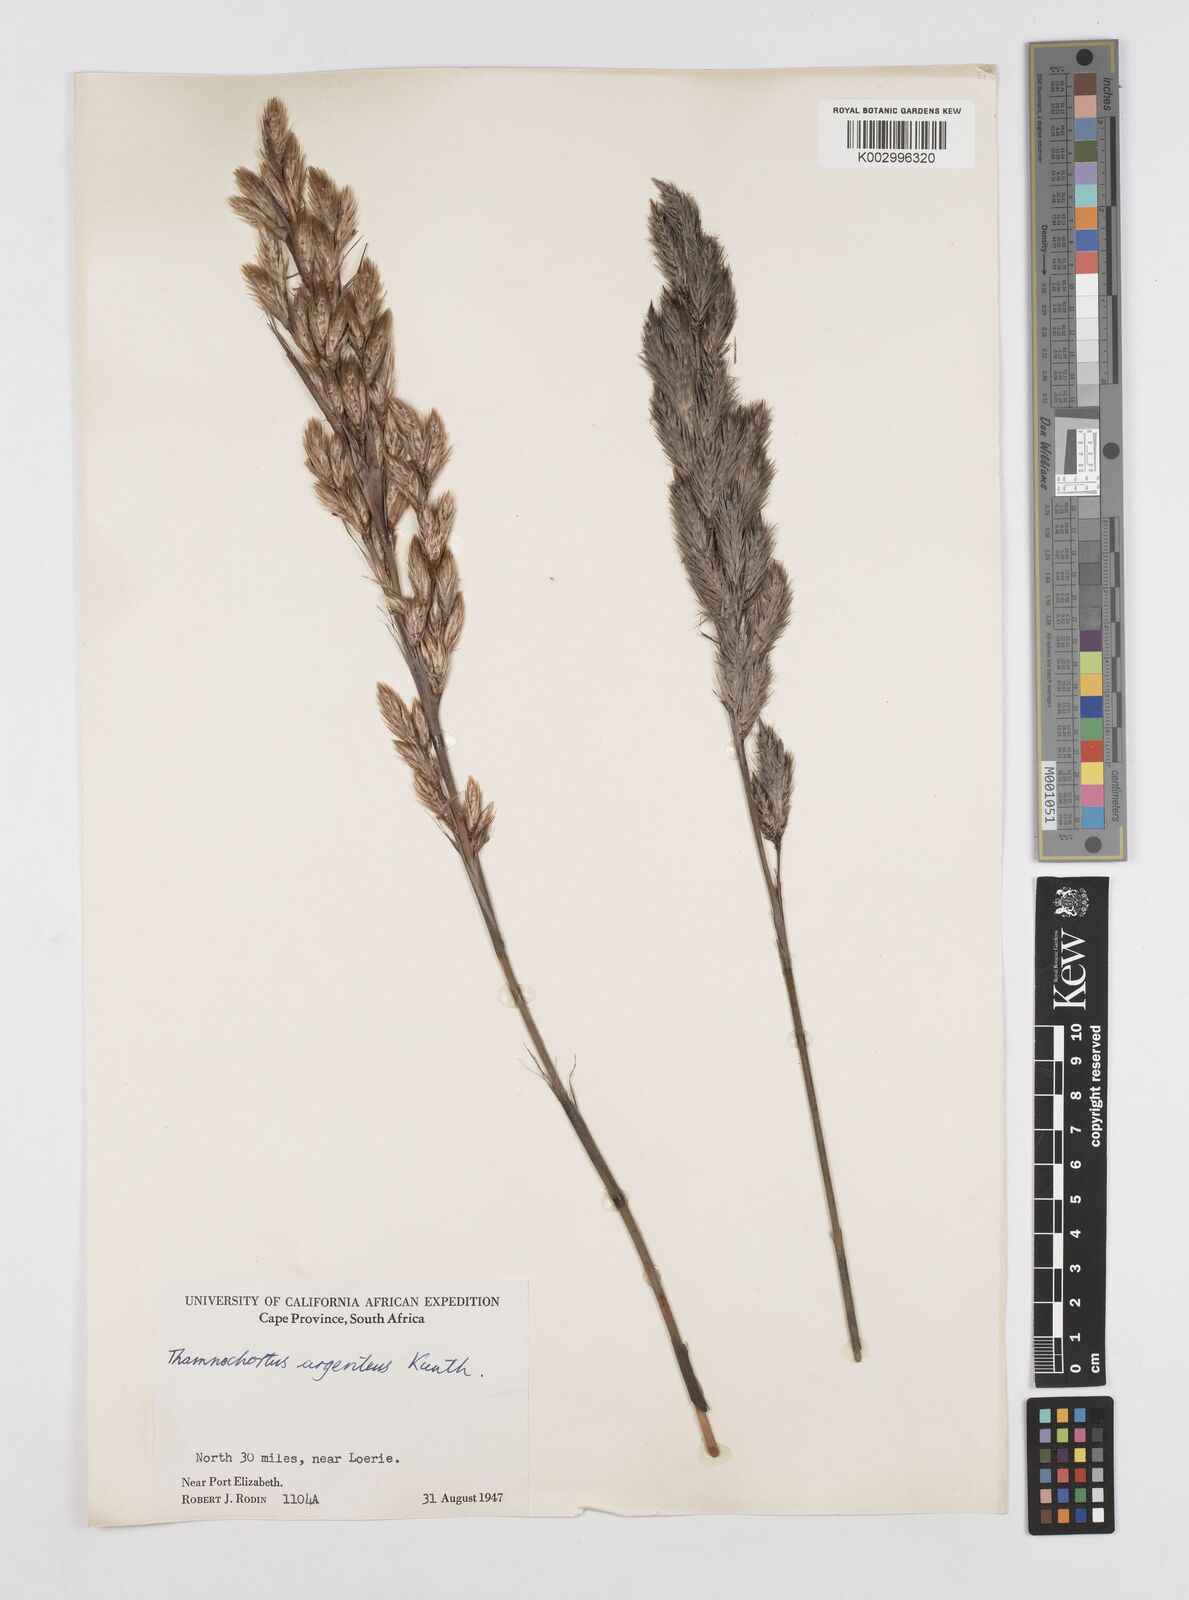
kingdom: Plantae
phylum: Tracheophyta
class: Liliopsida
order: Poales
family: Restionaceae
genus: Hypodiscus
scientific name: Hypodiscus argenteus
